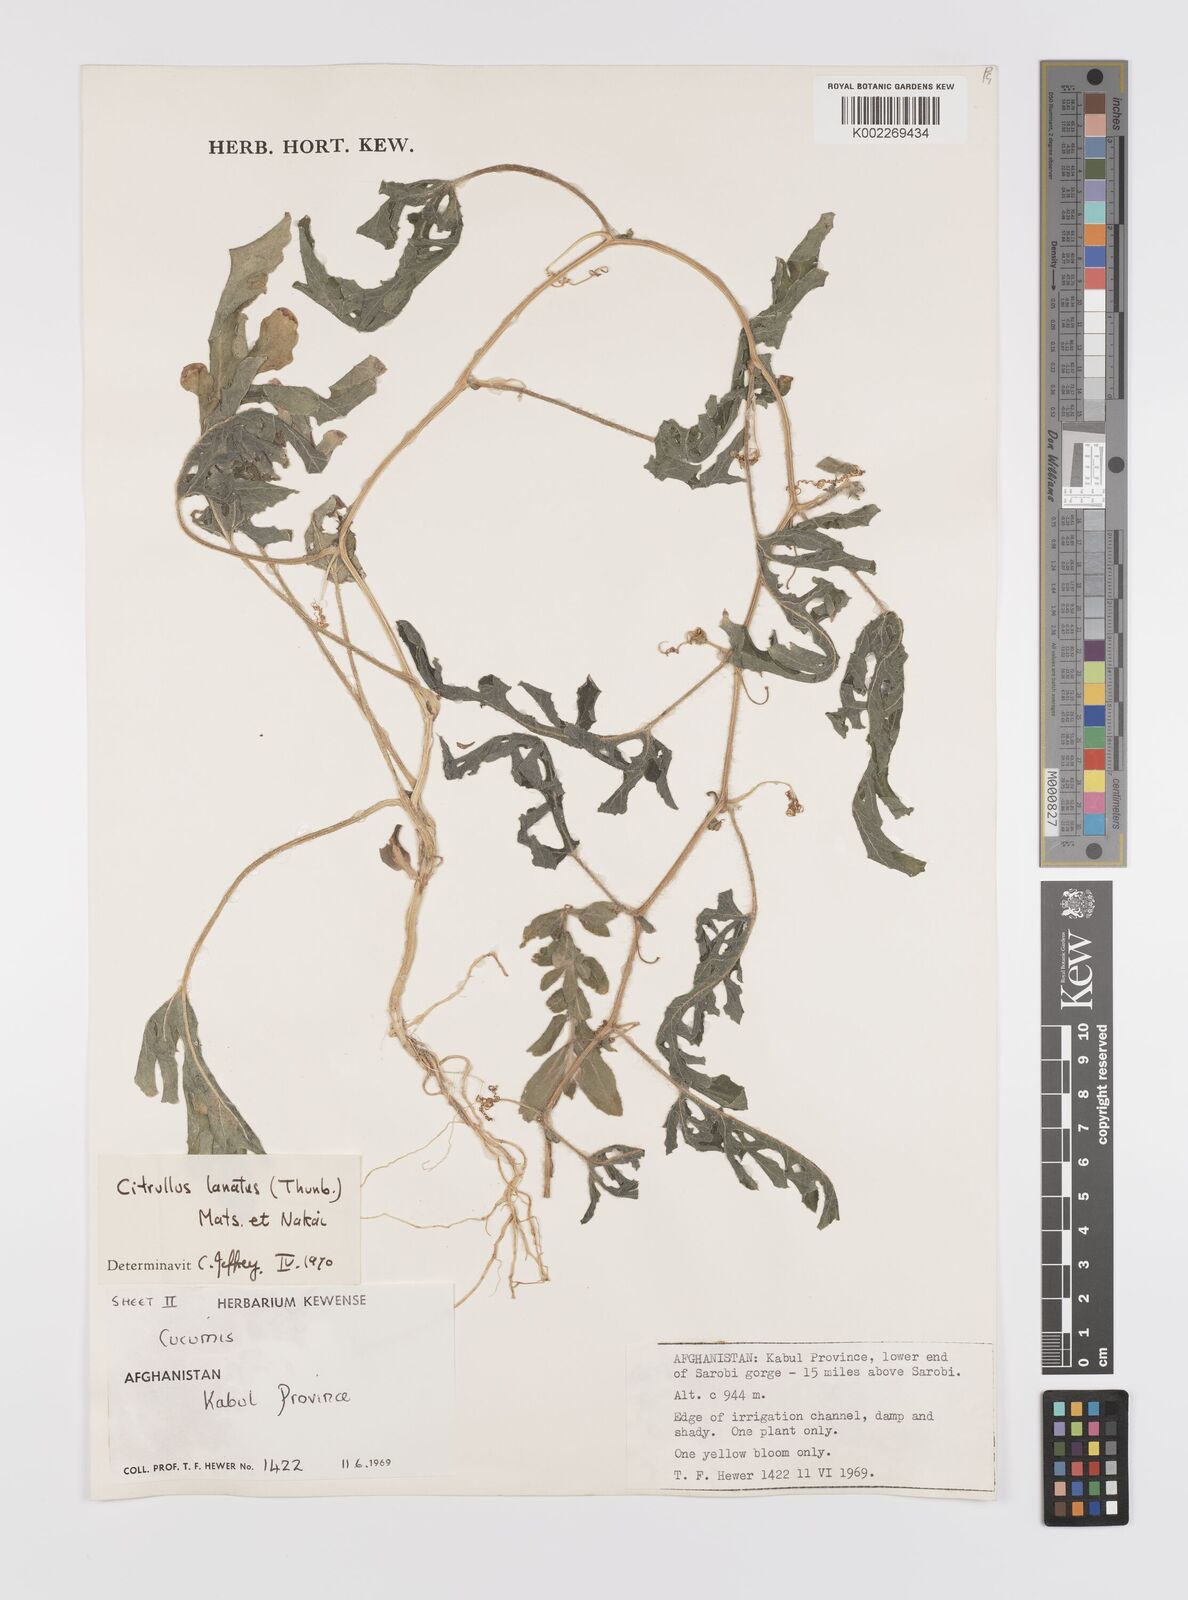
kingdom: Plantae
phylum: Tracheophyta
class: Magnoliopsida
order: Cucurbitales
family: Cucurbitaceae
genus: Citrullus
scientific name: Citrullus lanatus
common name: Watermelon
